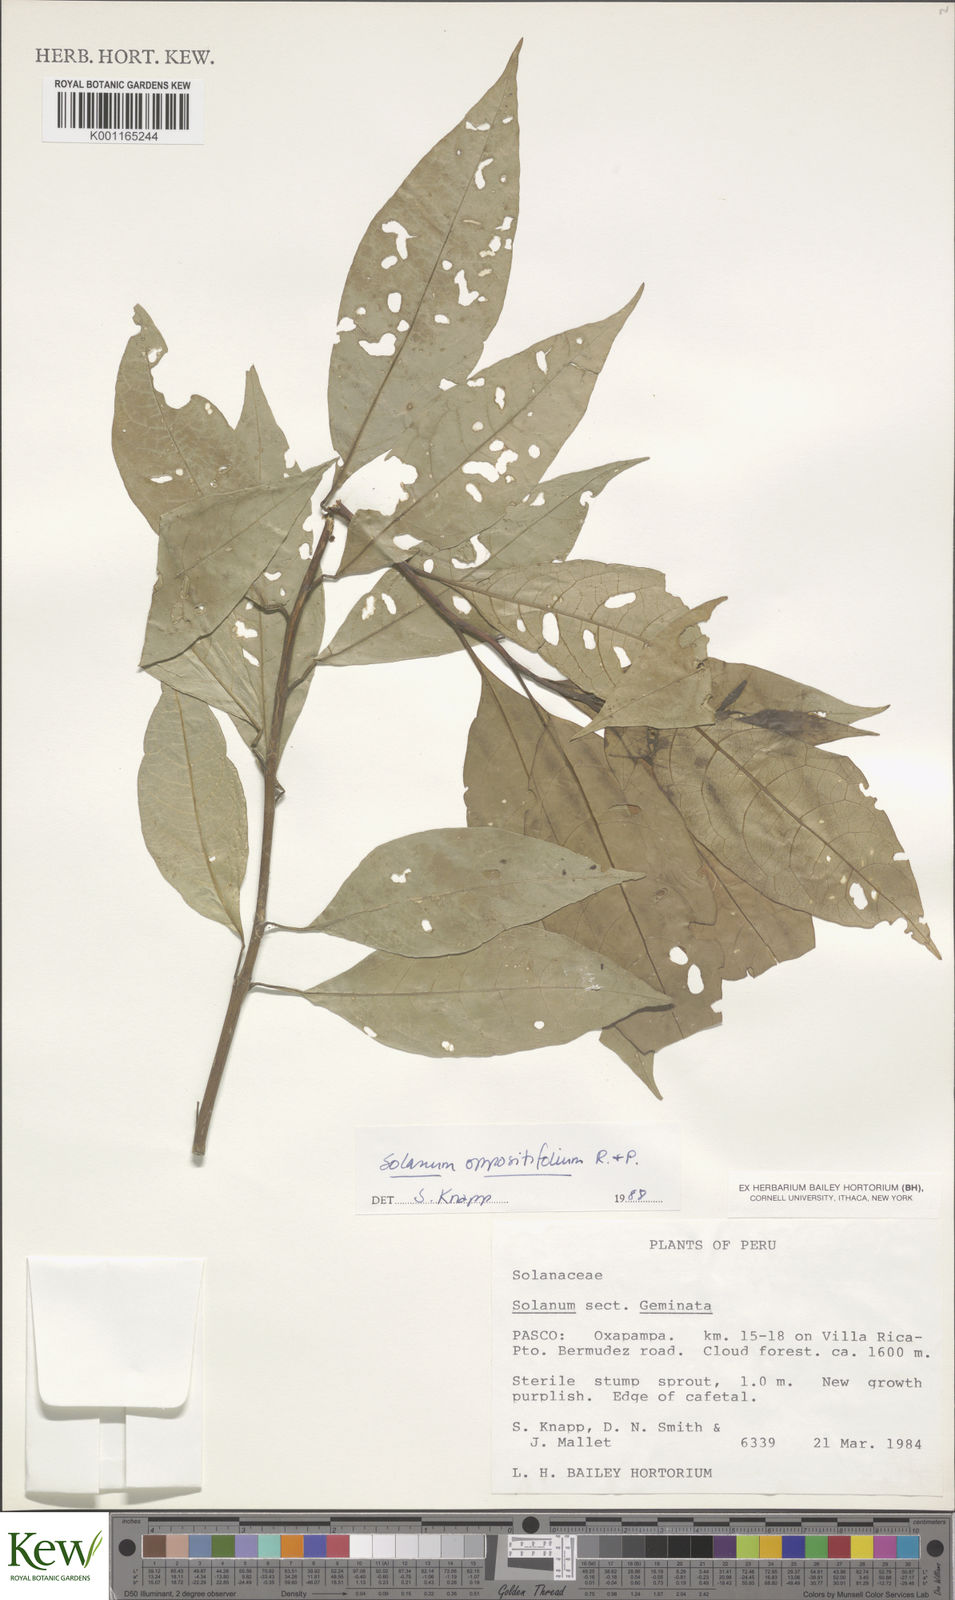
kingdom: Plantae
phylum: Tracheophyta
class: Magnoliopsida
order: Solanales
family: Solanaceae
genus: Solanum
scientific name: Solanum oppositifolium
